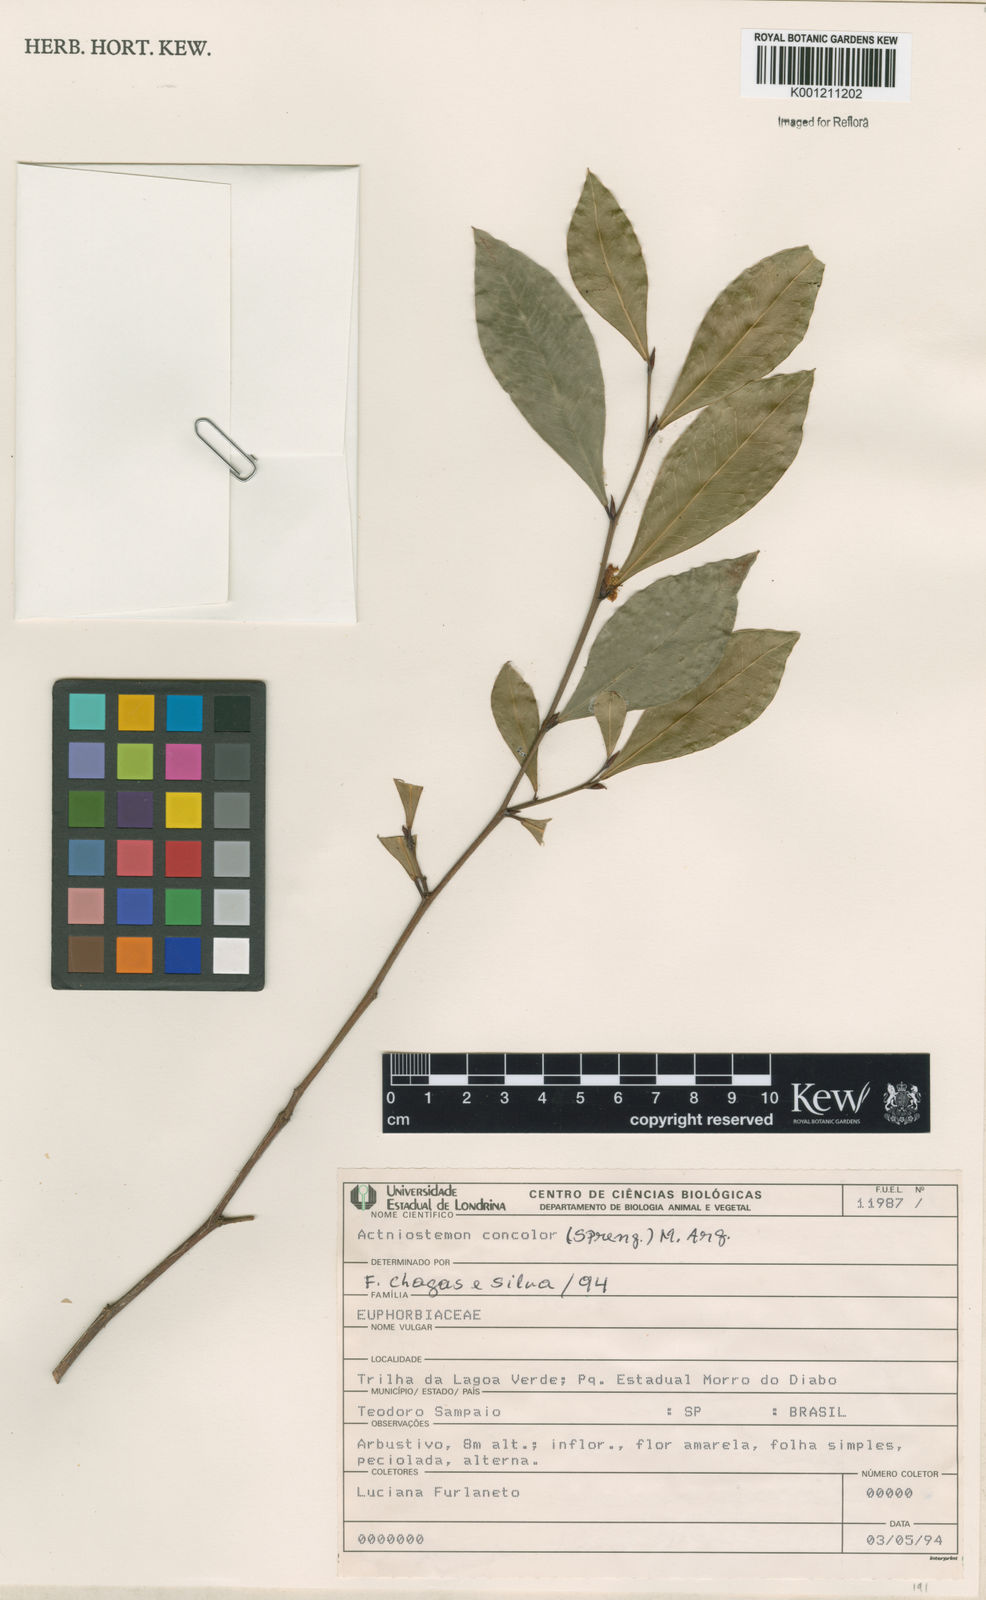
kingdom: Plantae
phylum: Tracheophyta
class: Magnoliopsida
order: Malpighiales
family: Euphorbiaceae
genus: Actinostemon
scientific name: Actinostemon
